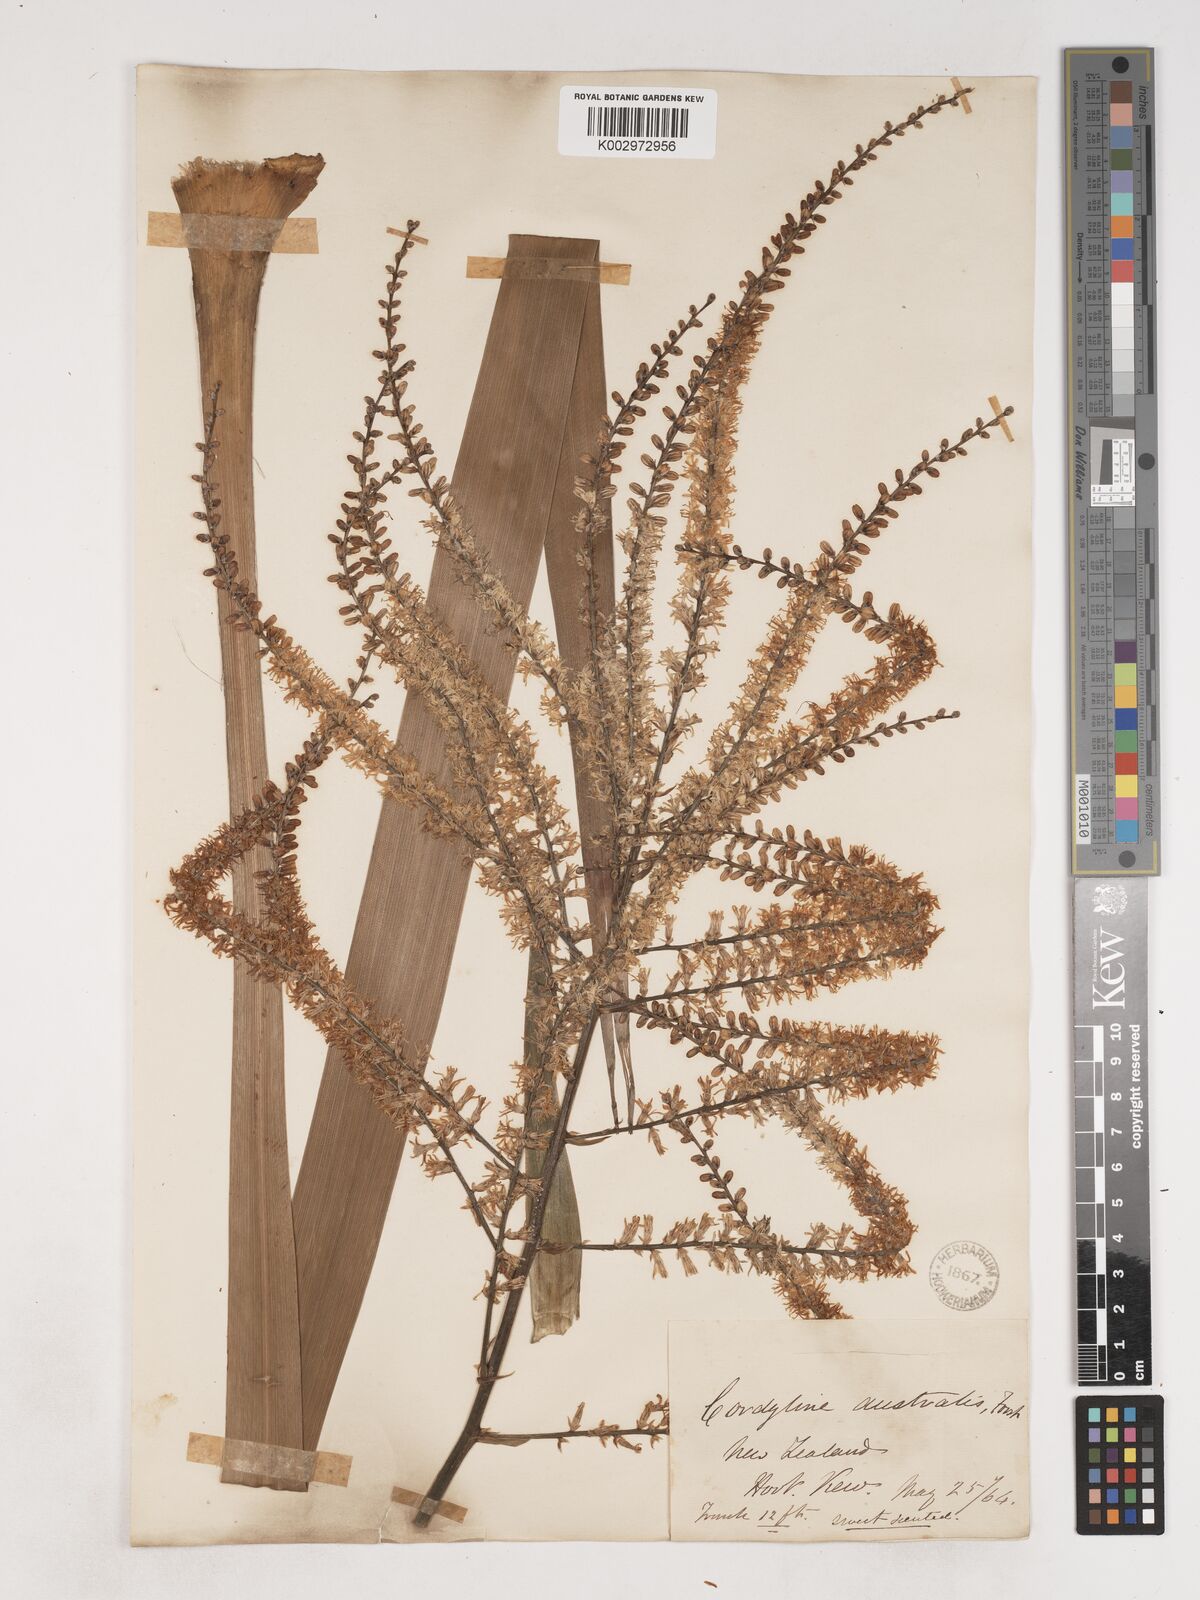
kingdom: Plantae
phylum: Tracheophyta
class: Liliopsida
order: Asparagales
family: Asparagaceae
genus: Cordyline
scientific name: Cordyline australis
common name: Cabbage-palm
